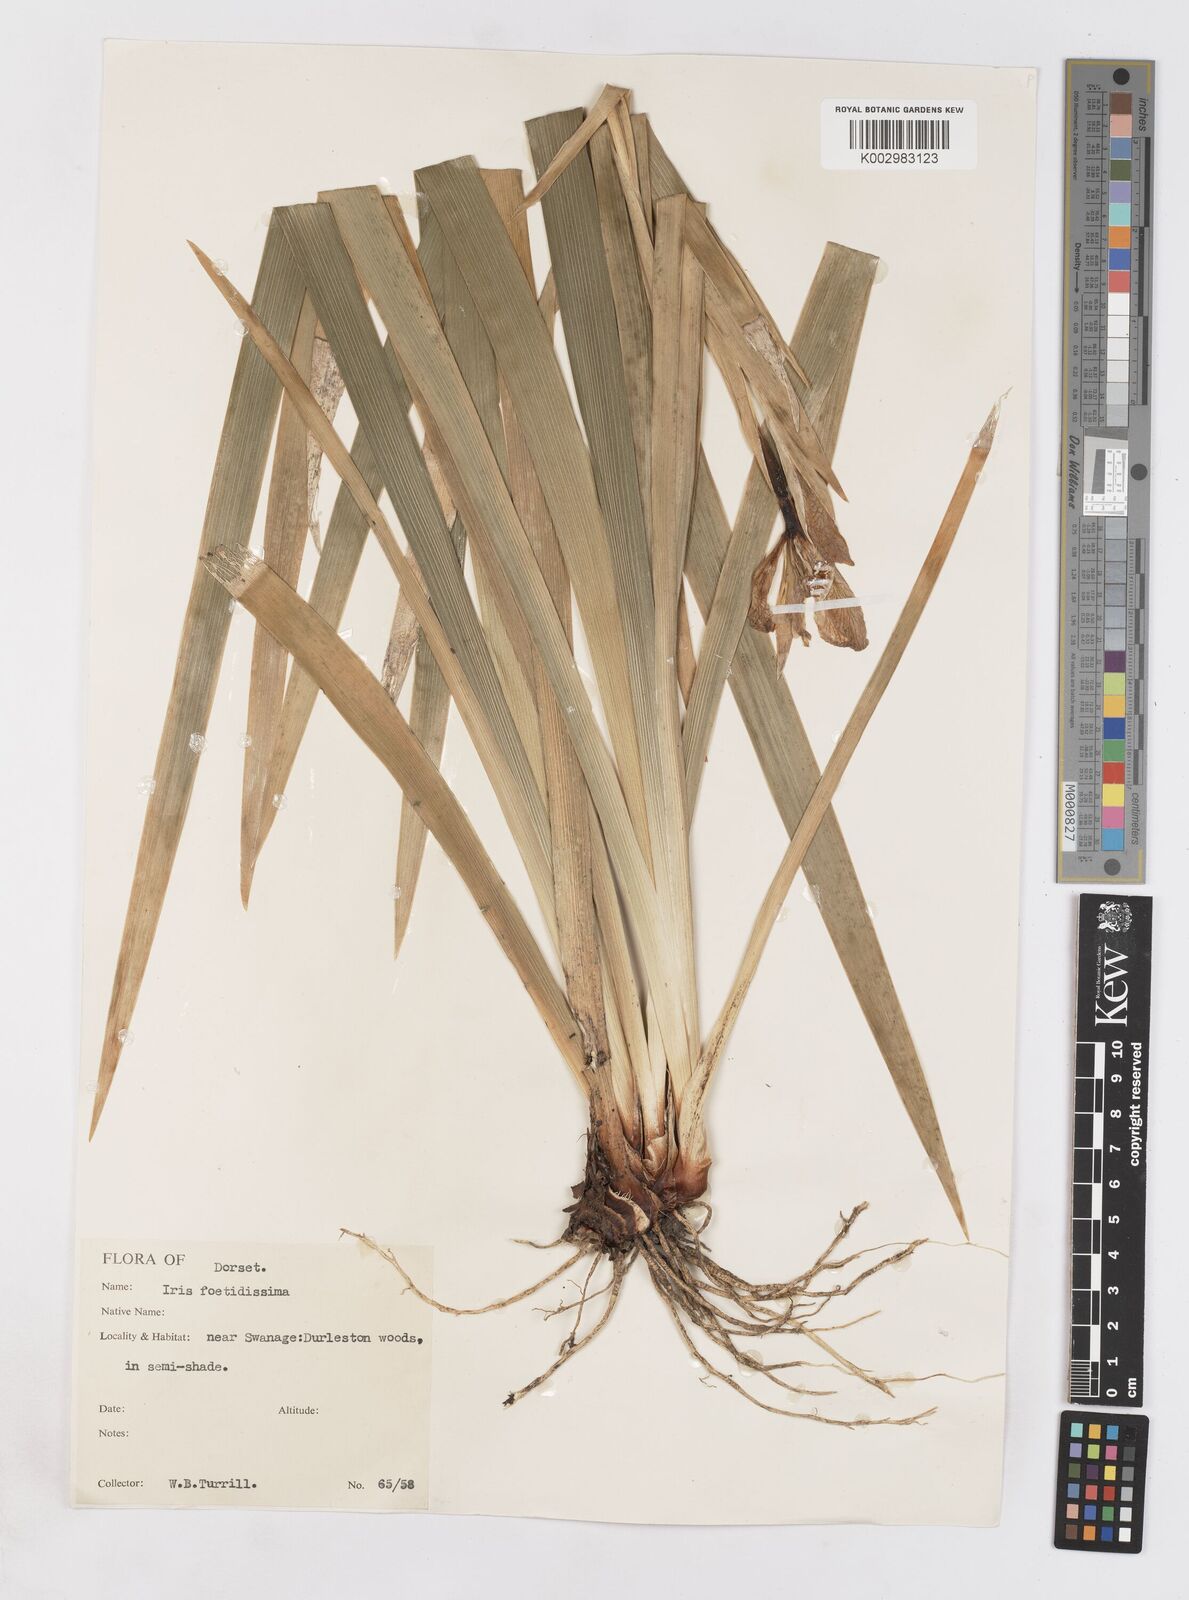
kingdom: Plantae
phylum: Tracheophyta
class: Liliopsida
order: Asparagales
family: Iridaceae
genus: Iris
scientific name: Iris foetidissima
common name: Stinking iris
